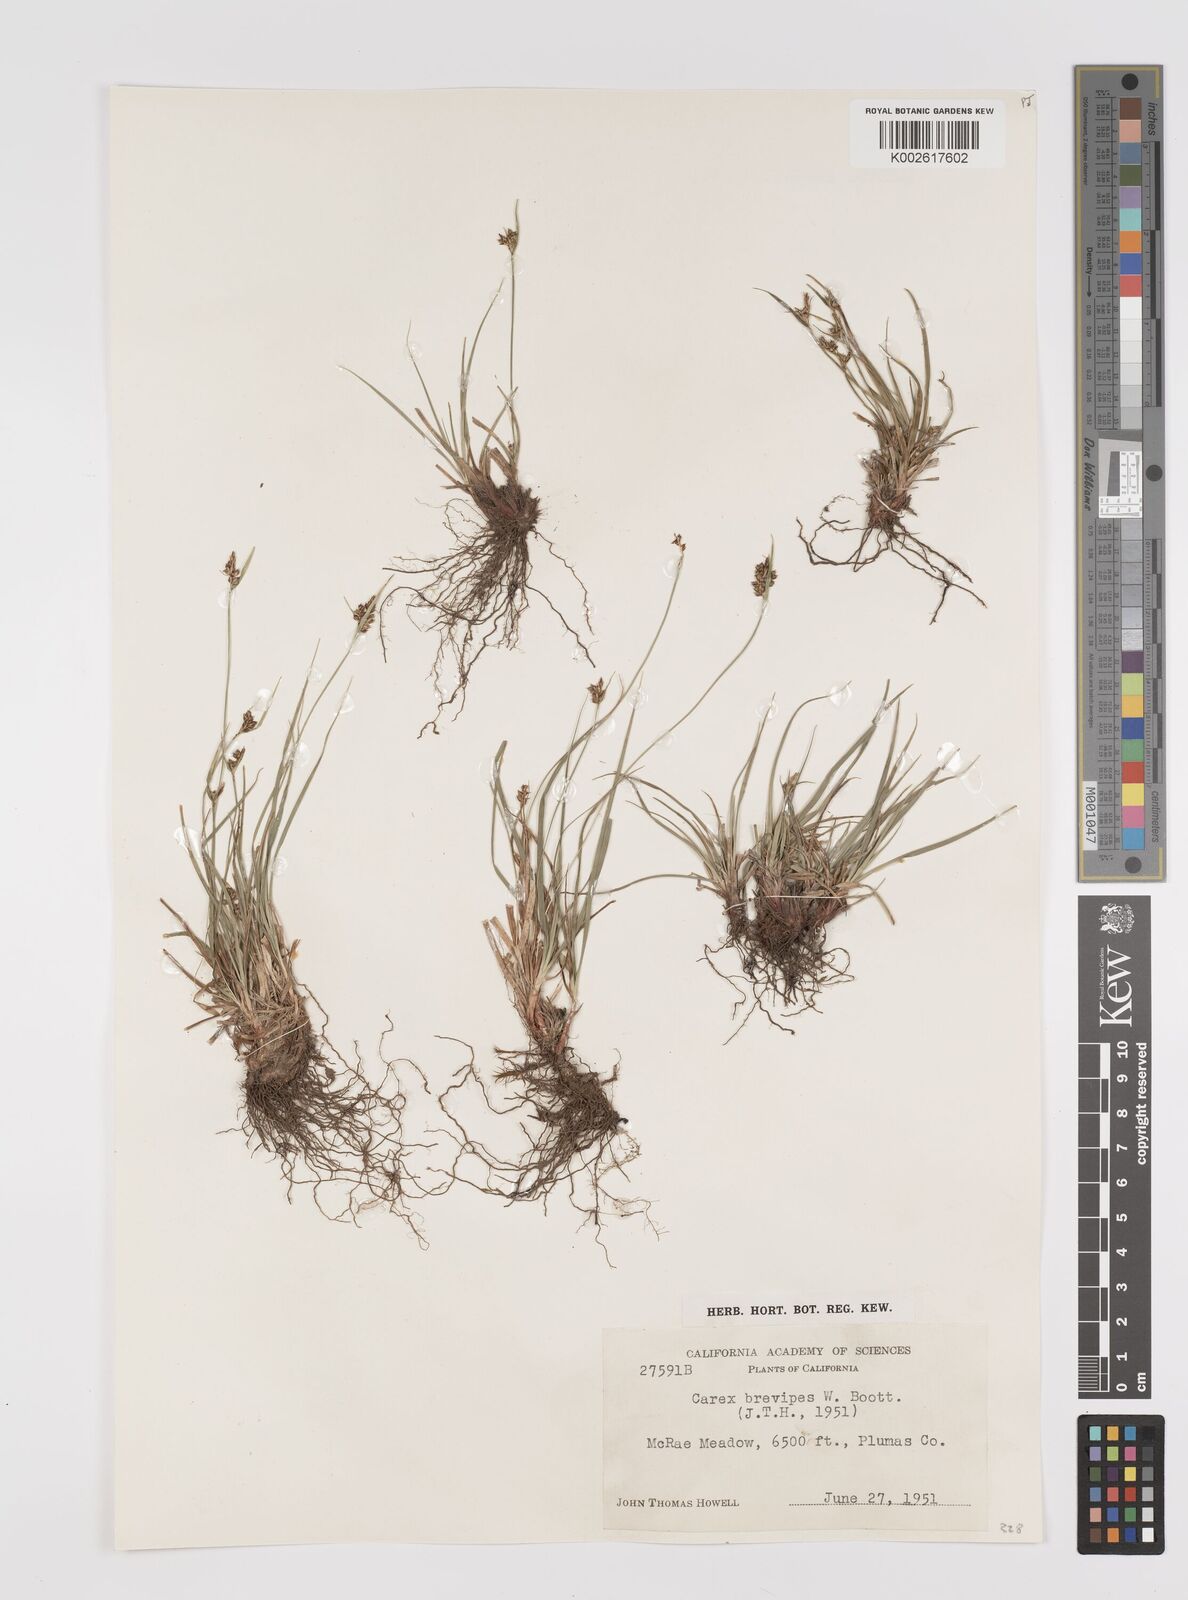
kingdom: Plantae
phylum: Tracheophyta
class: Liliopsida
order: Poales
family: Cyperaceae
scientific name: Cyperaceae
